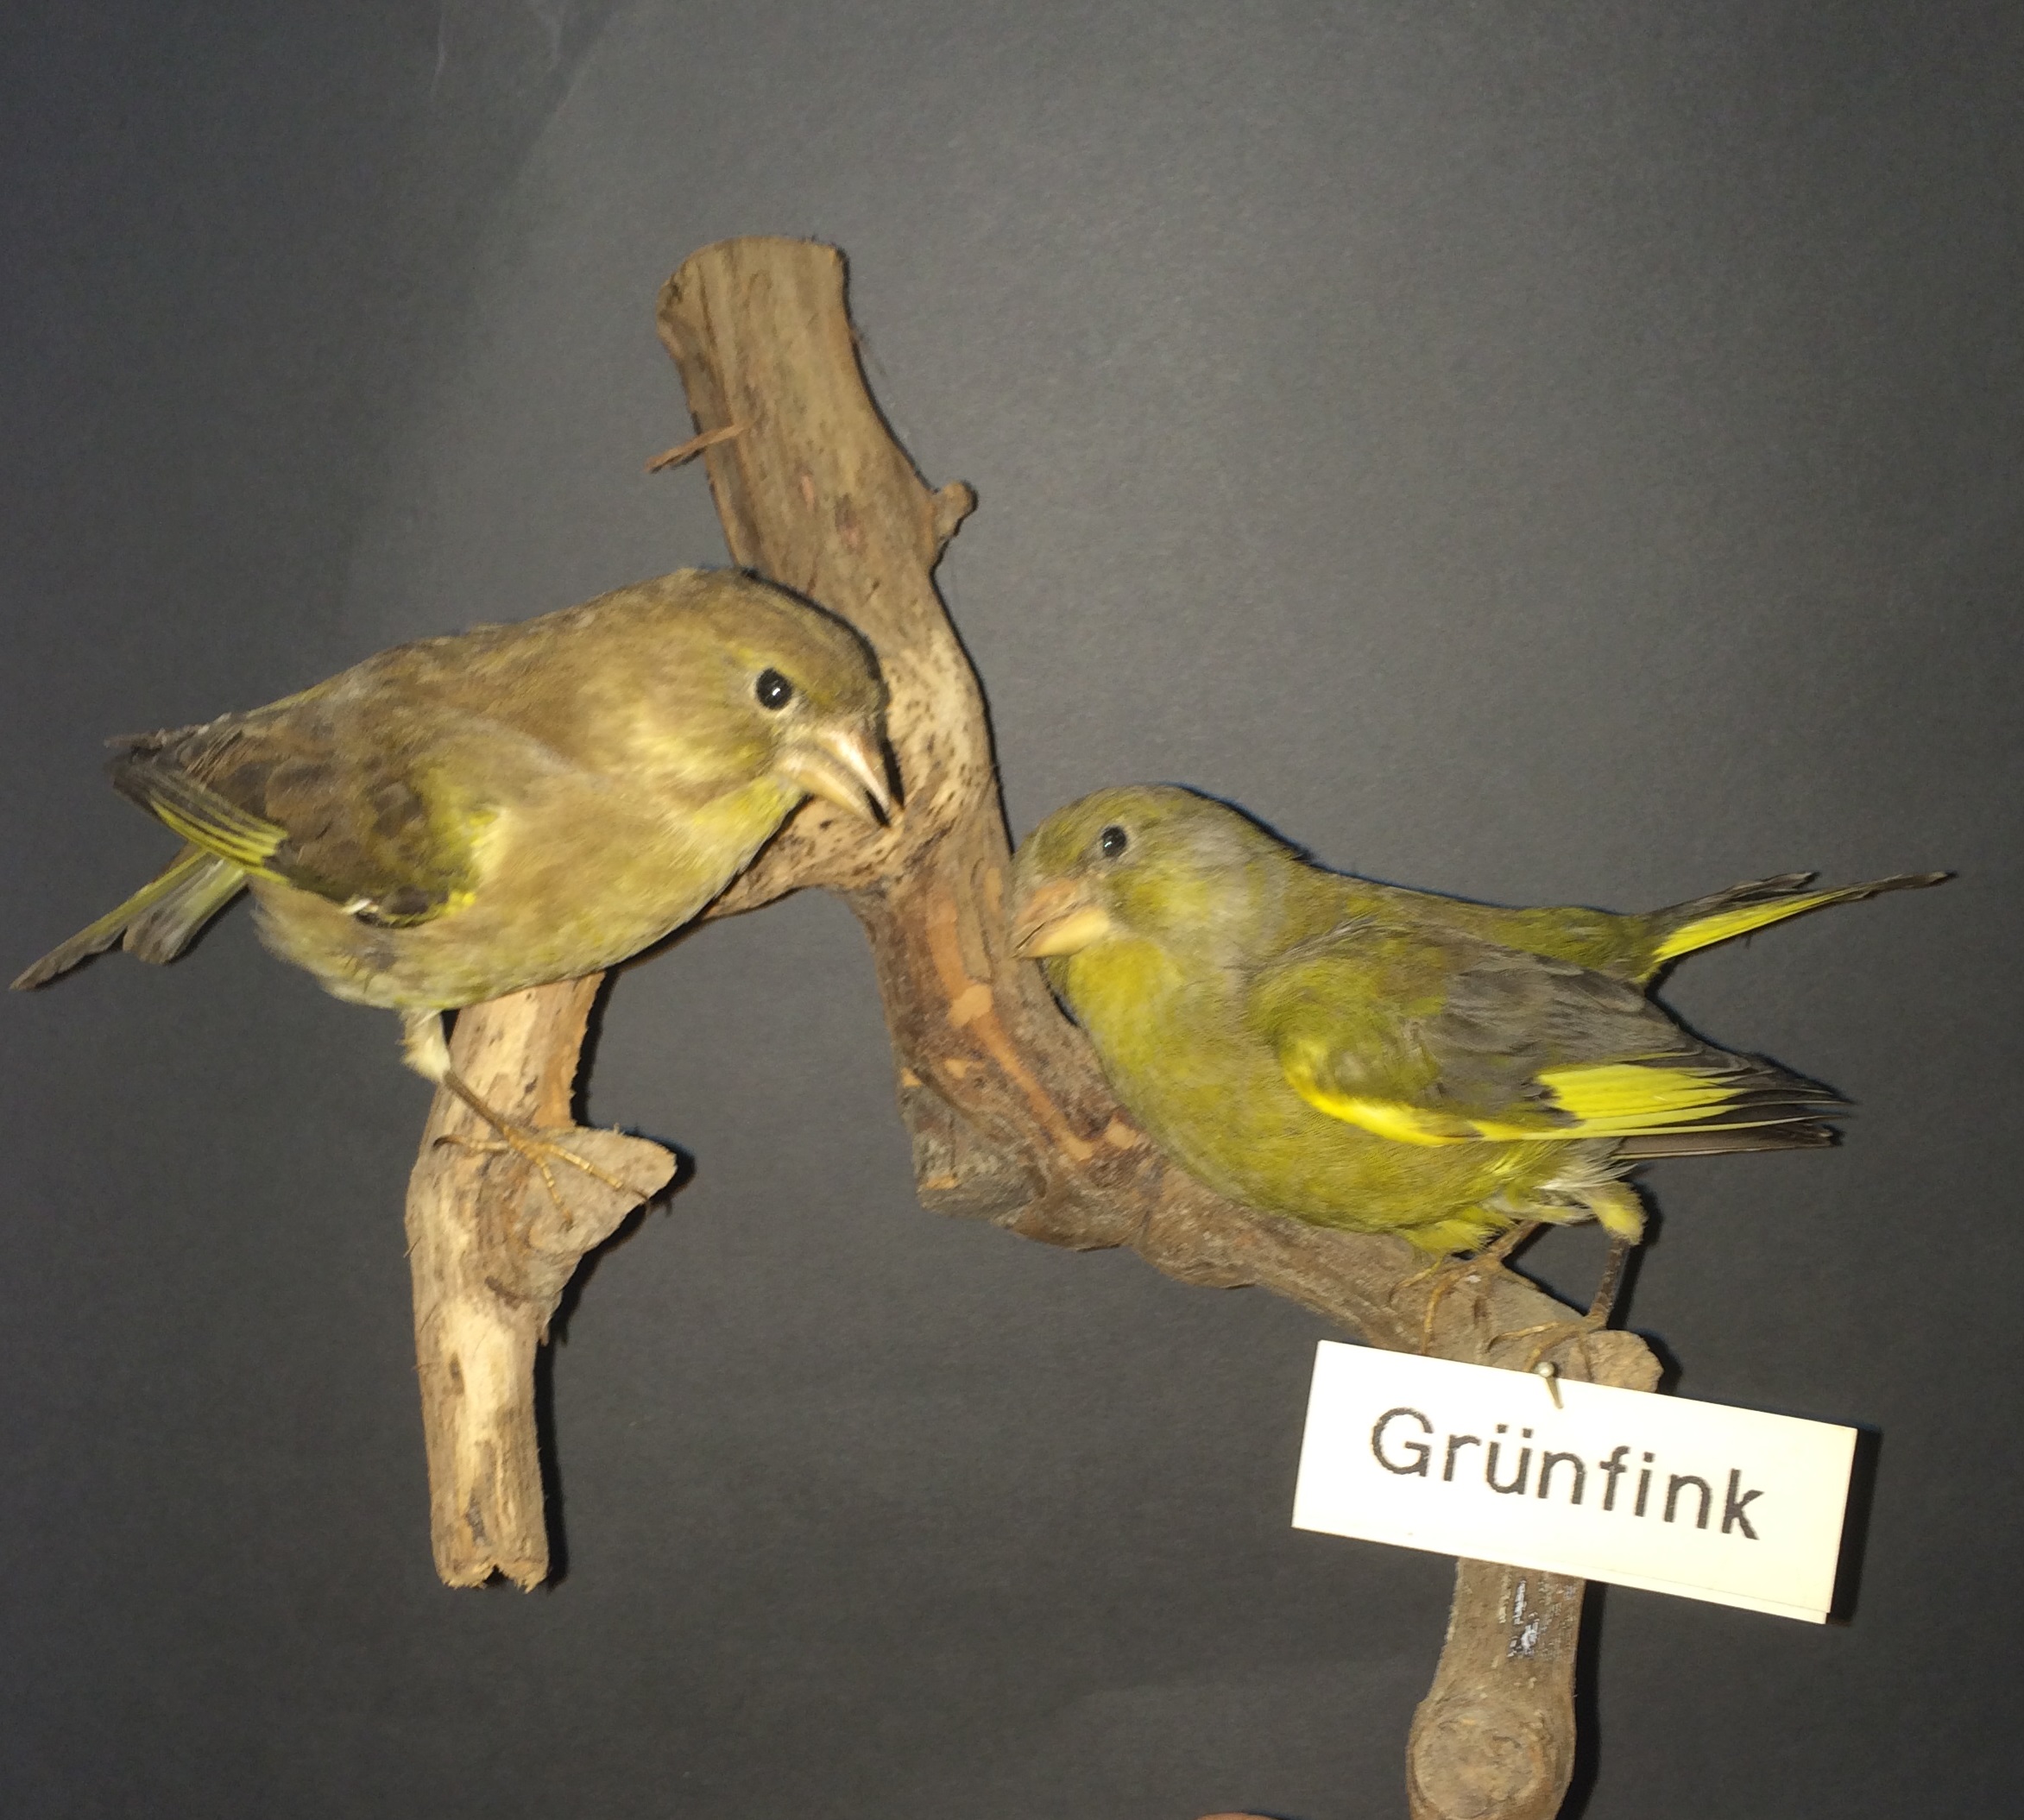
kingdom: Plantae
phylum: Tracheophyta
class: Liliopsida
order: Poales
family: Poaceae
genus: Chloris
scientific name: Chloris chloris
